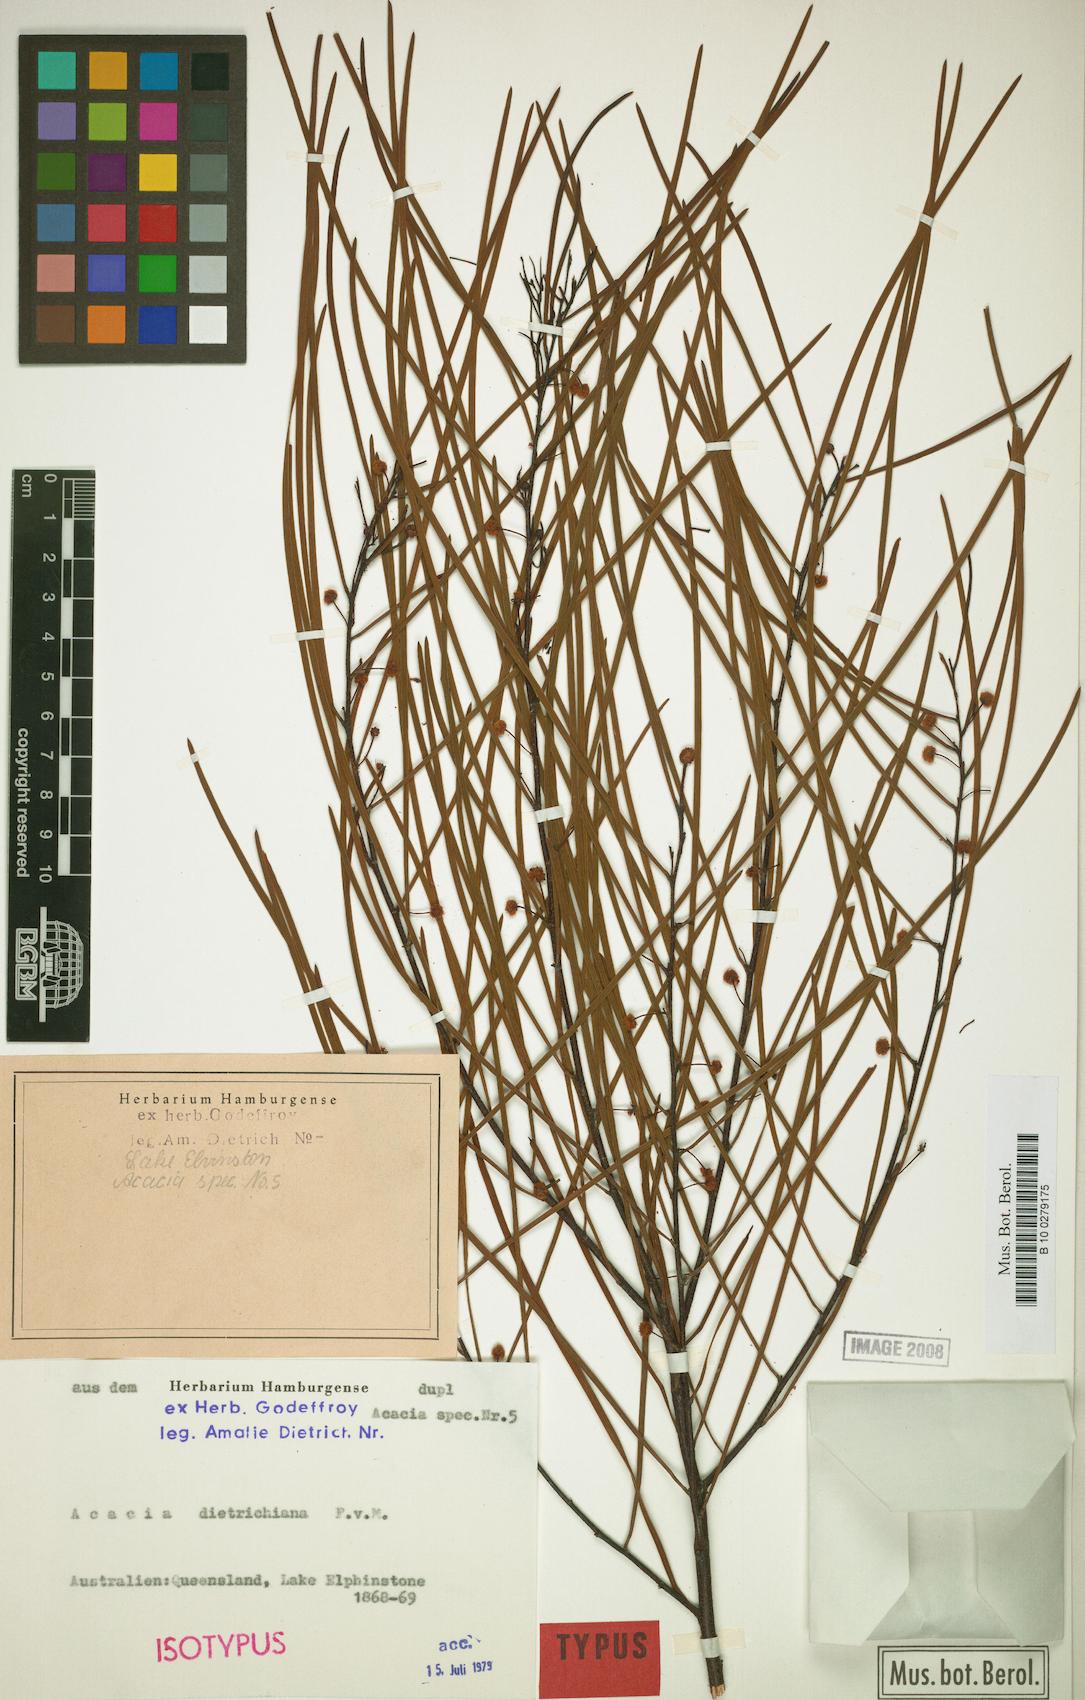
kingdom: Plantae
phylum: Tracheophyta
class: Magnoliopsida
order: Fabales
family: Fabaceae
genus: Acacia
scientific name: Acacia dietrichiana
